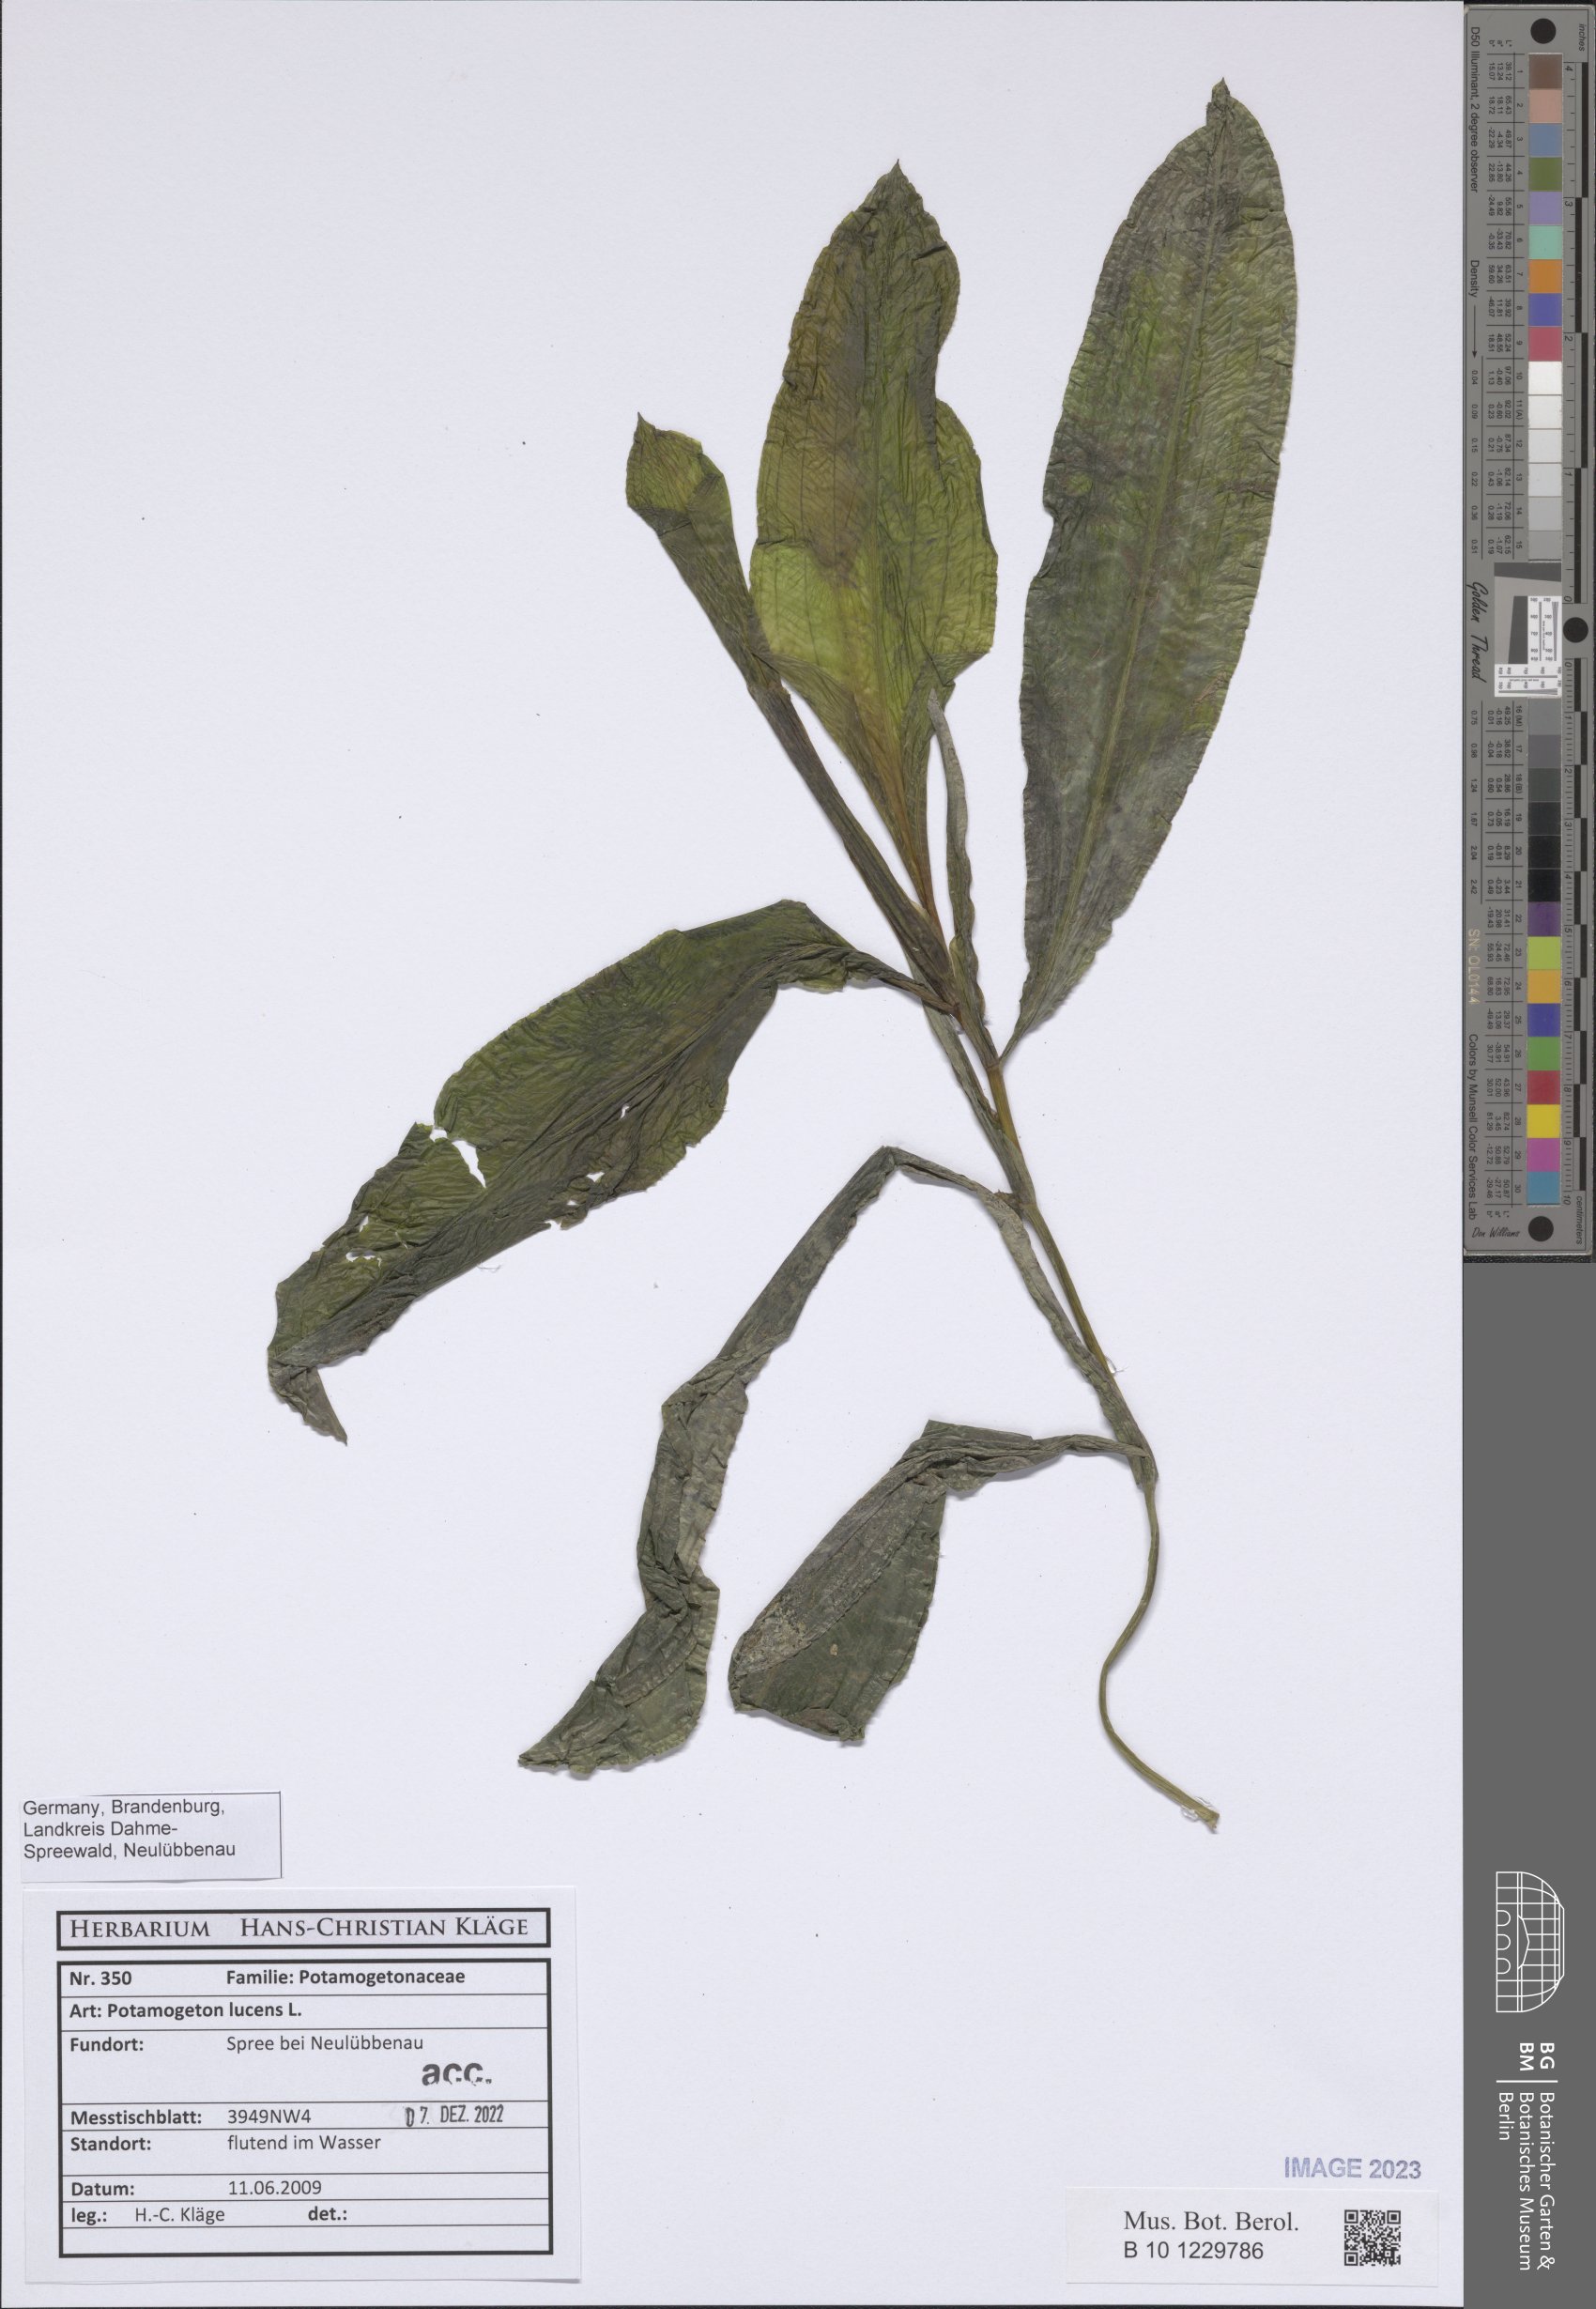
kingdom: Plantae
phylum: Tracheophyta
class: Liliopsida
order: Alismatales
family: Potamogetonaceae
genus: Potamogeton
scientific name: Potamogeton lucens
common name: Shining pondweed
